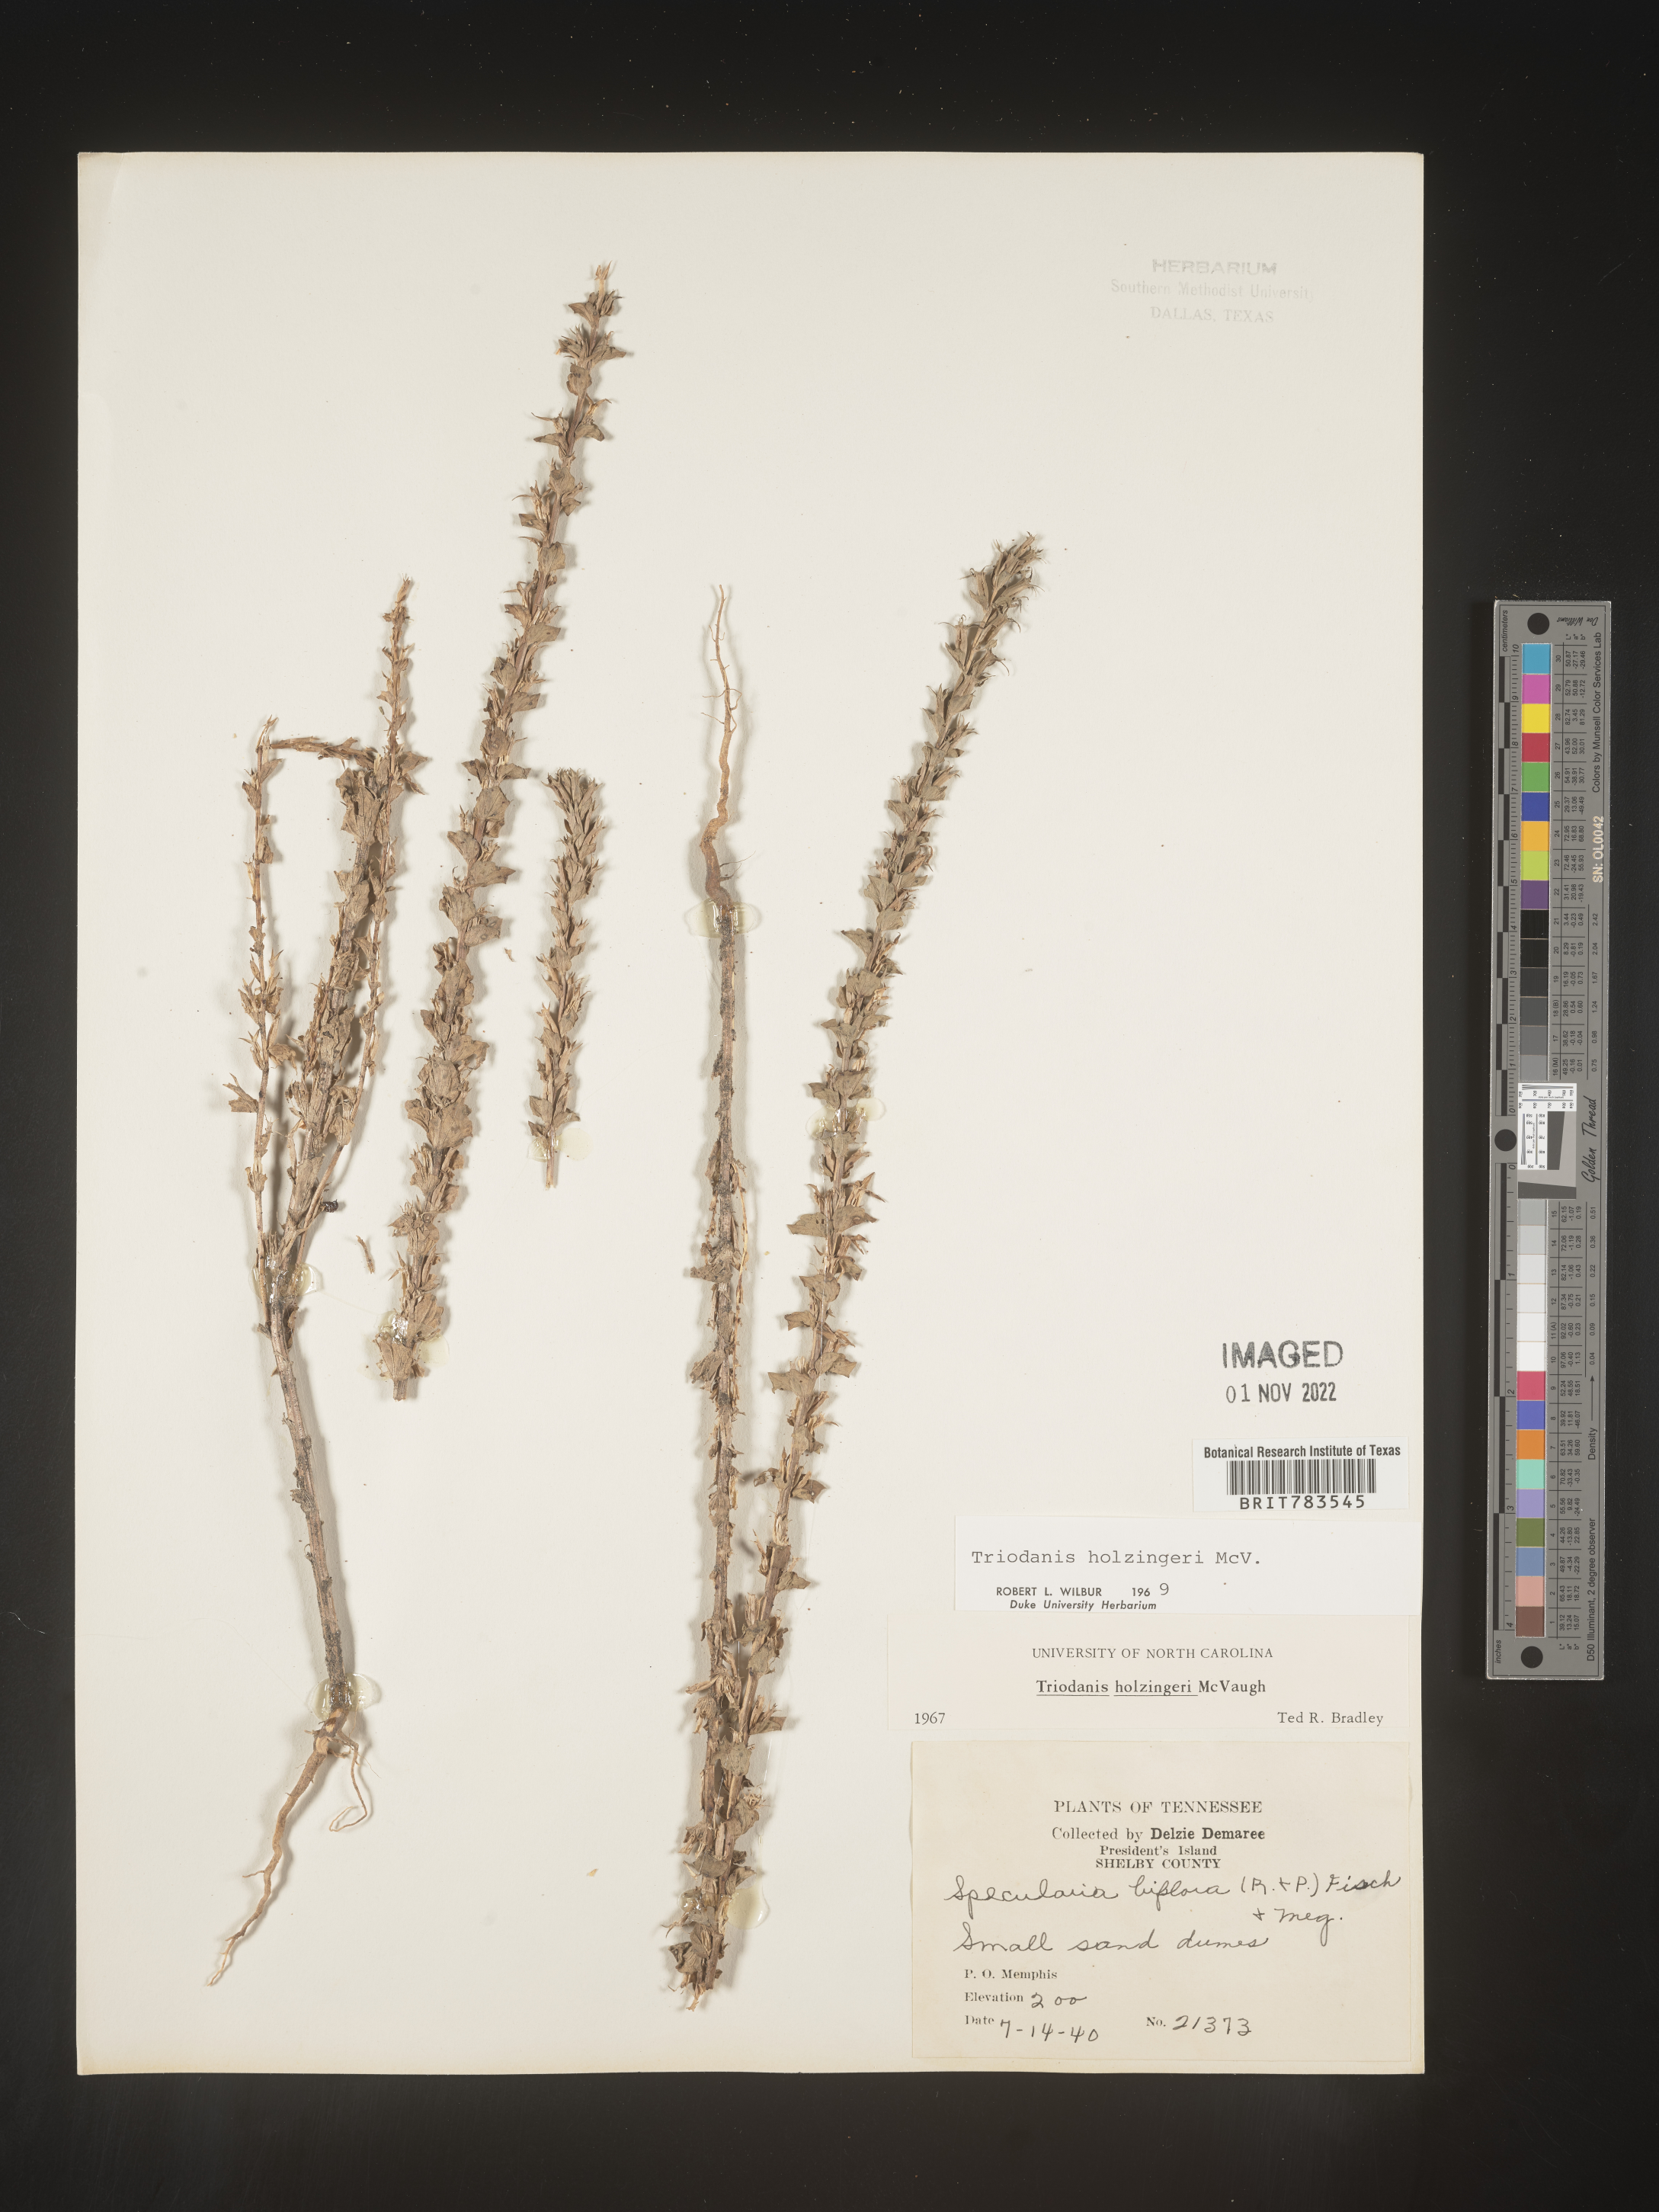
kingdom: Plantae
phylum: Tracheophyta
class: Magnoliopsida
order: Asterales
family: Campanulaceae
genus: Triodanis
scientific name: Triodanis holzingeri
